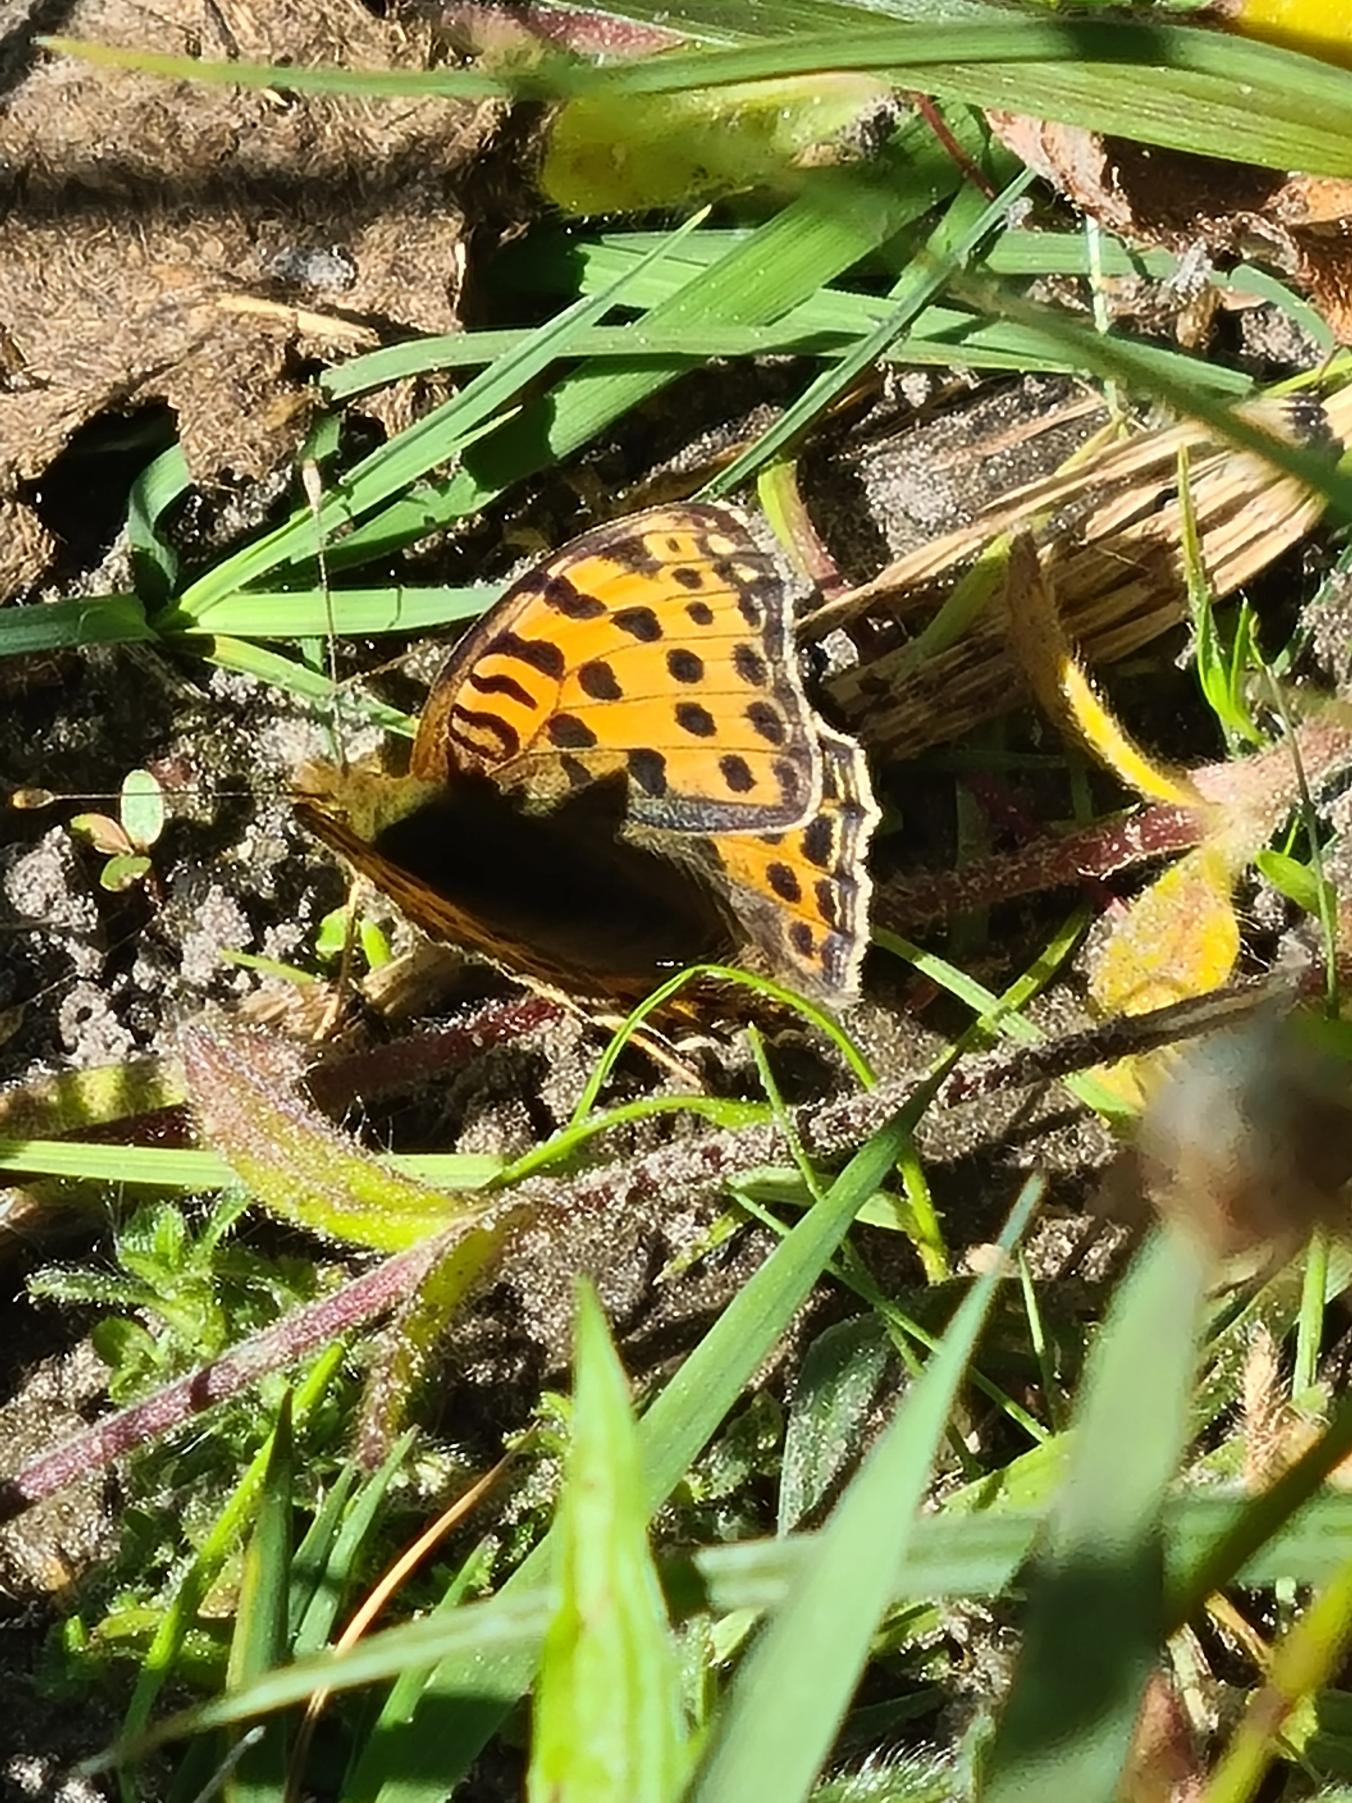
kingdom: Animalia
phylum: Arthropoda
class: Insecta
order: Lepidoptera
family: Nymphalidae
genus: Issoria
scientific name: Issoria lathonia
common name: Storplettet perlemorsommerfugl
